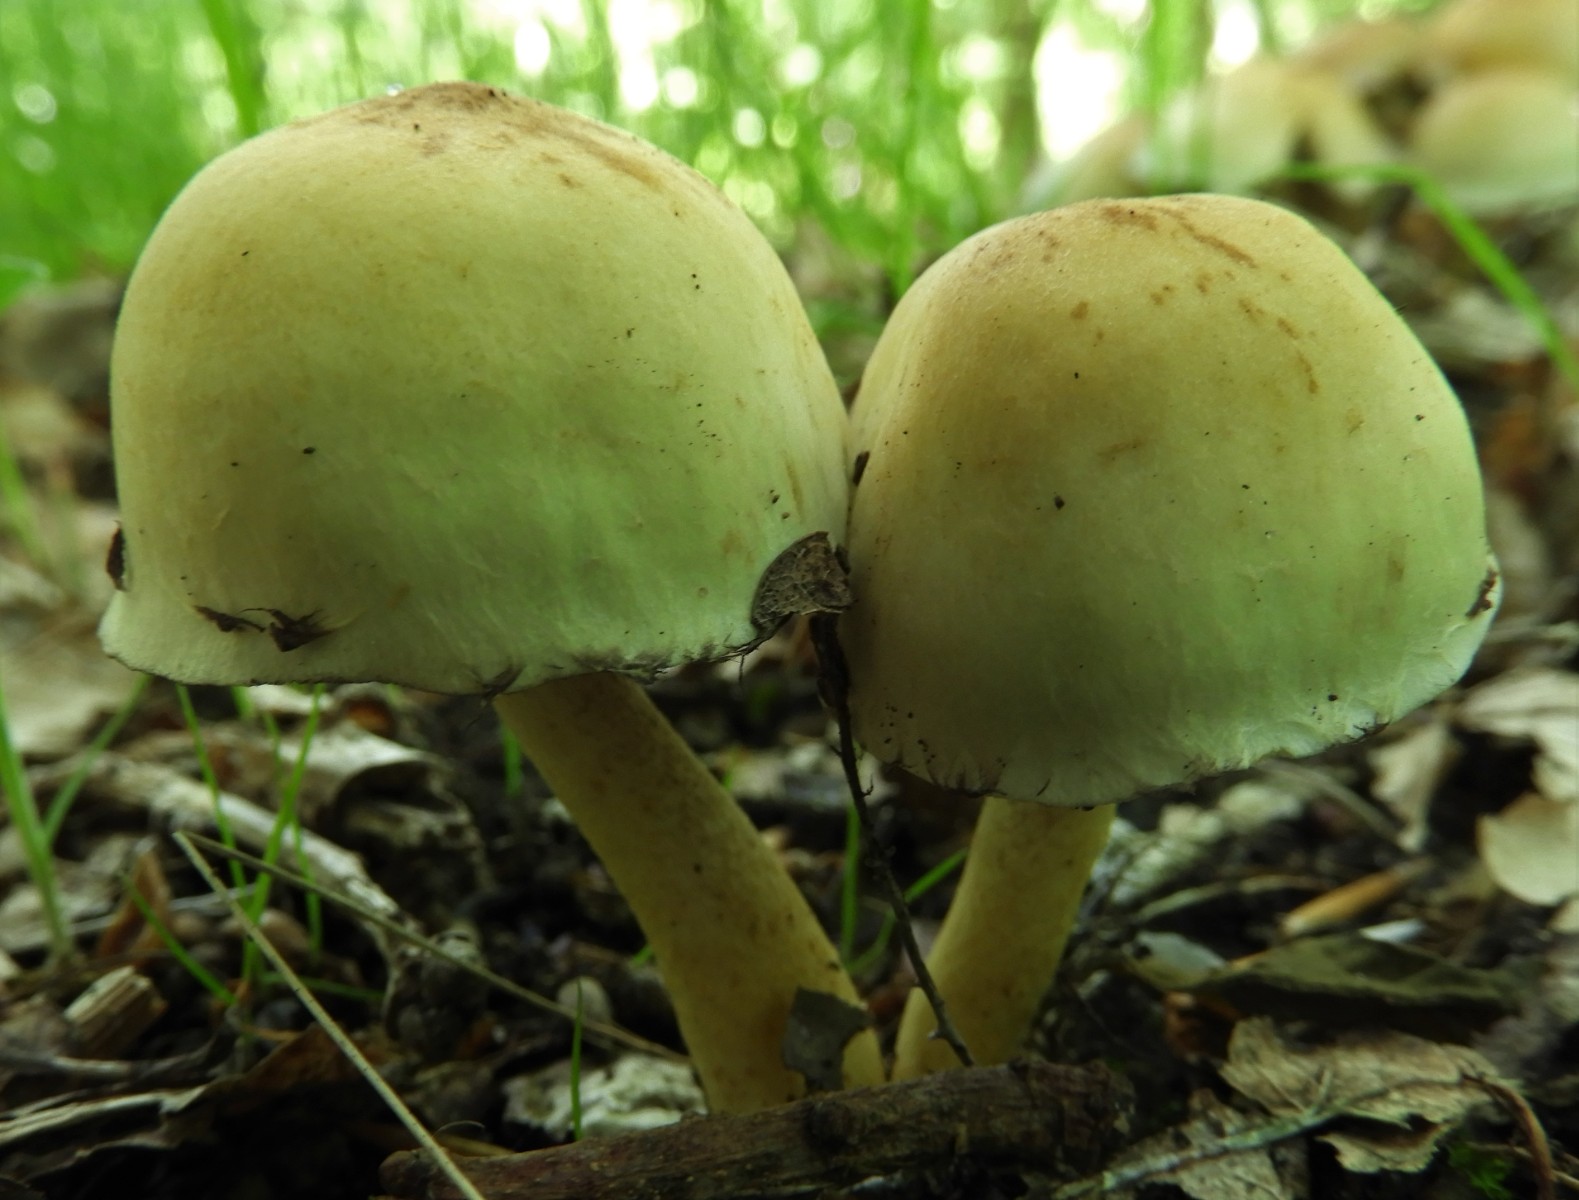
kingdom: Fungi
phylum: Basidiomycota
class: Agaricomycetes
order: Agaricales
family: Strophariaceae
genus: Hypholoma
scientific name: Hypholoma fasciculare
